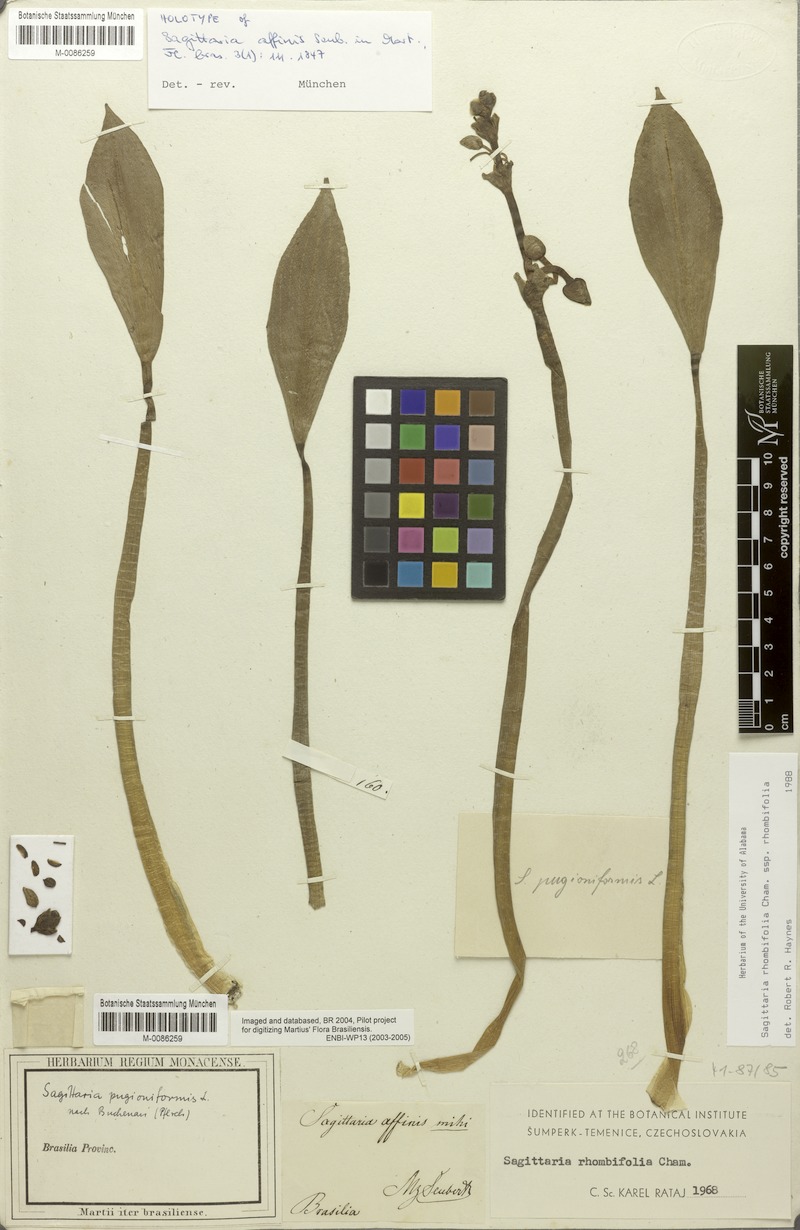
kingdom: Plantae
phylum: Tracheophyta
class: Liliopsida
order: Alismatales
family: Alismataceae
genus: Sagittaria
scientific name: Sagittaria rhombifolia
